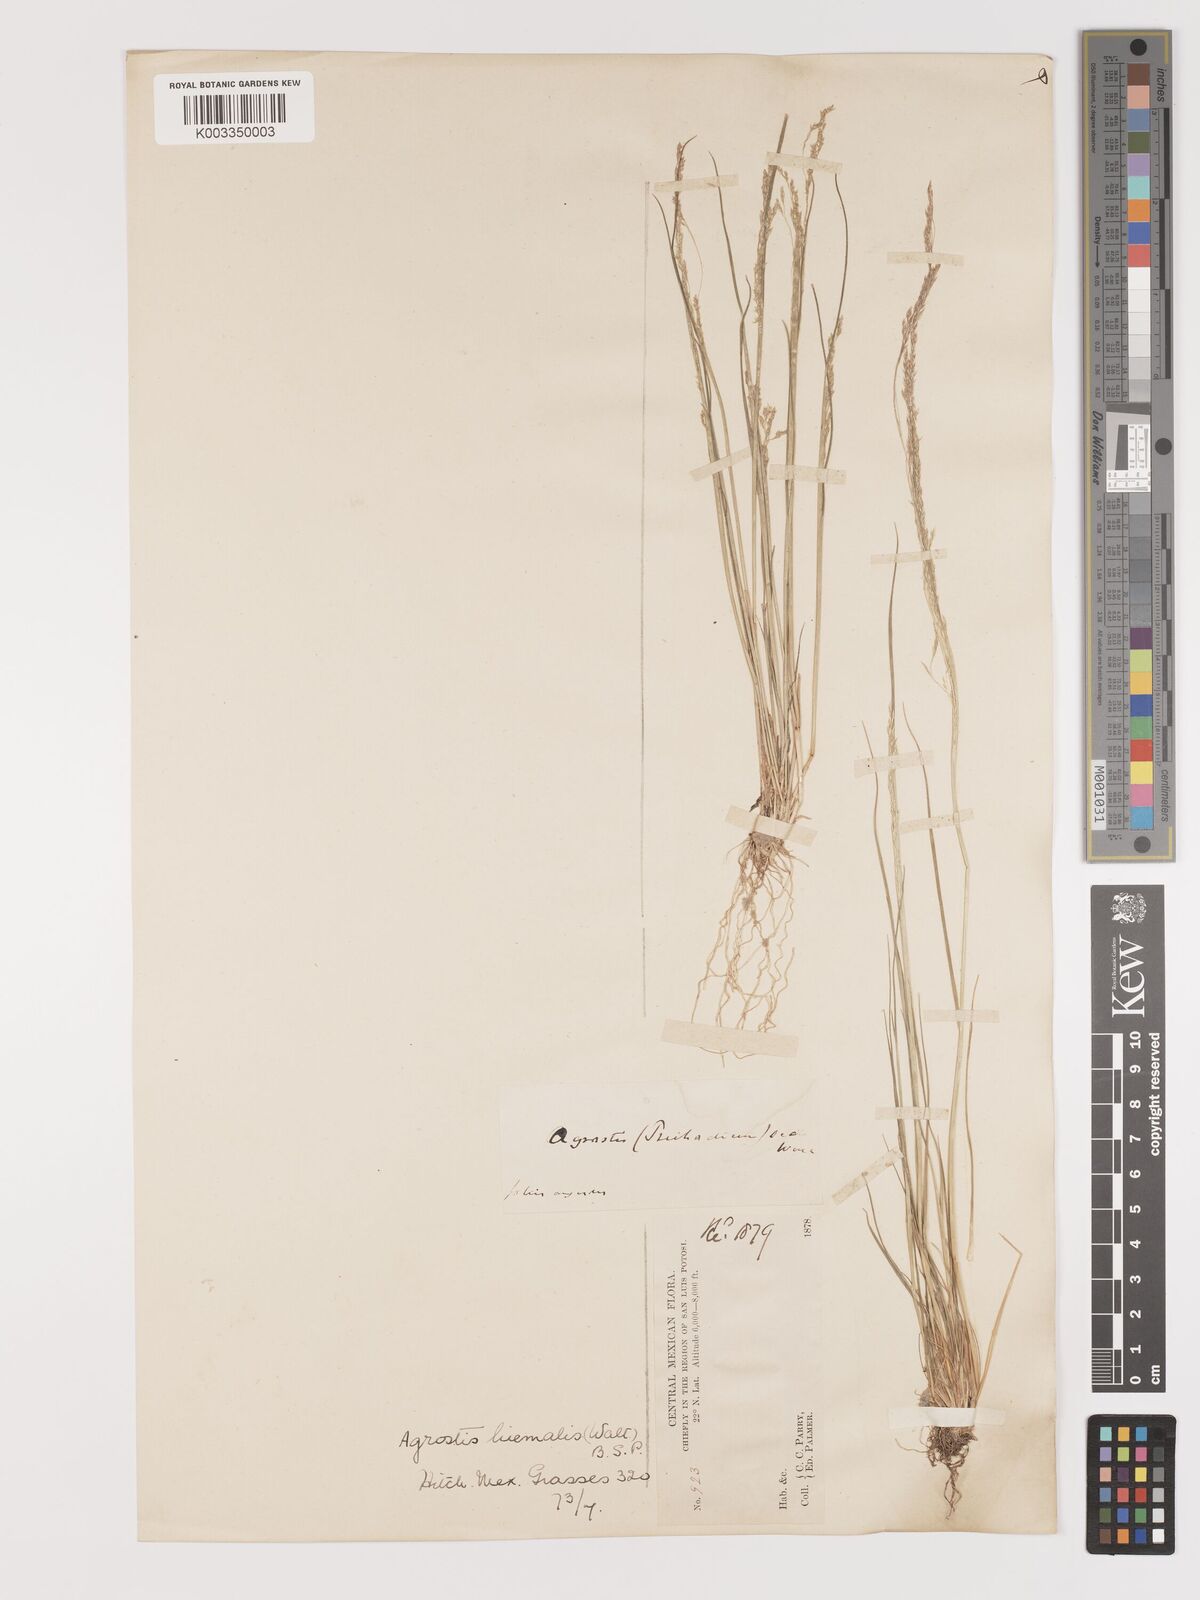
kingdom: Plantae
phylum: Tracheophyta
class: Liliopsida
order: Poales
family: Poaceae
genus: Agrostis
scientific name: Agrostis hyemalis
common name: Small bent
